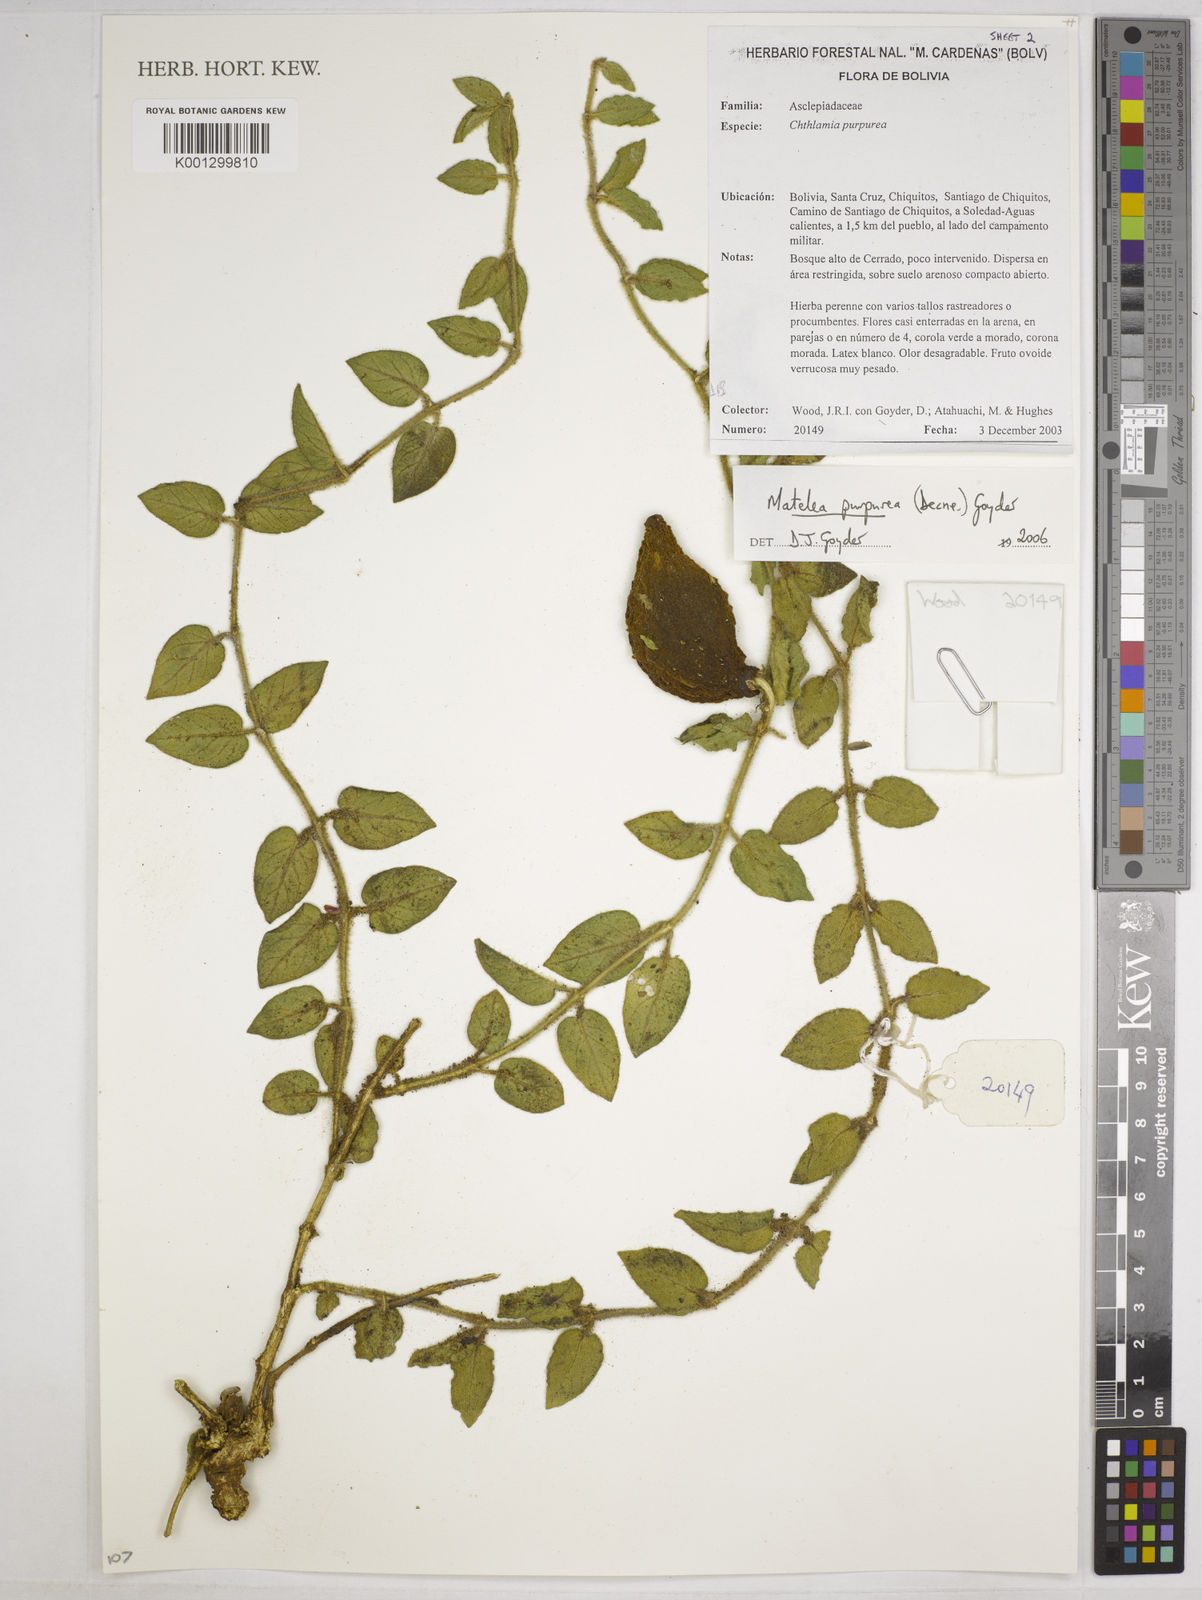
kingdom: Plantae
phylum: Tracheophyta
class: Magnoliopsida
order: Gentianales
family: Apocynaceae
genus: Austrochthamalia
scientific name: Austrochthamalia purpurea
